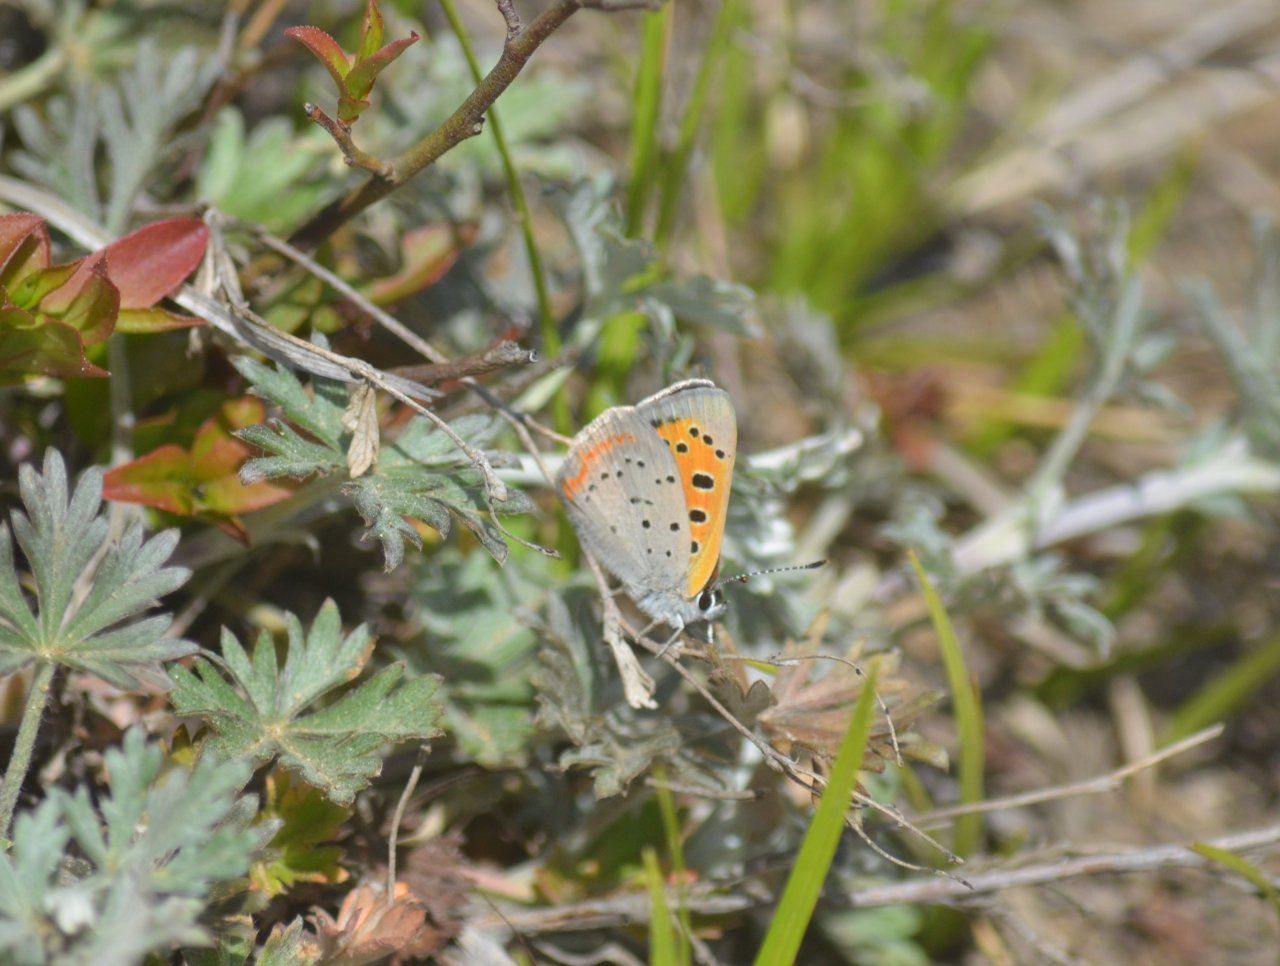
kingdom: Animalia
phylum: Arthropoda
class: Insecta
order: Lepidoptera
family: Lycaenidae
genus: Lycaena
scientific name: Lycaena phlaeas
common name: American Copper
